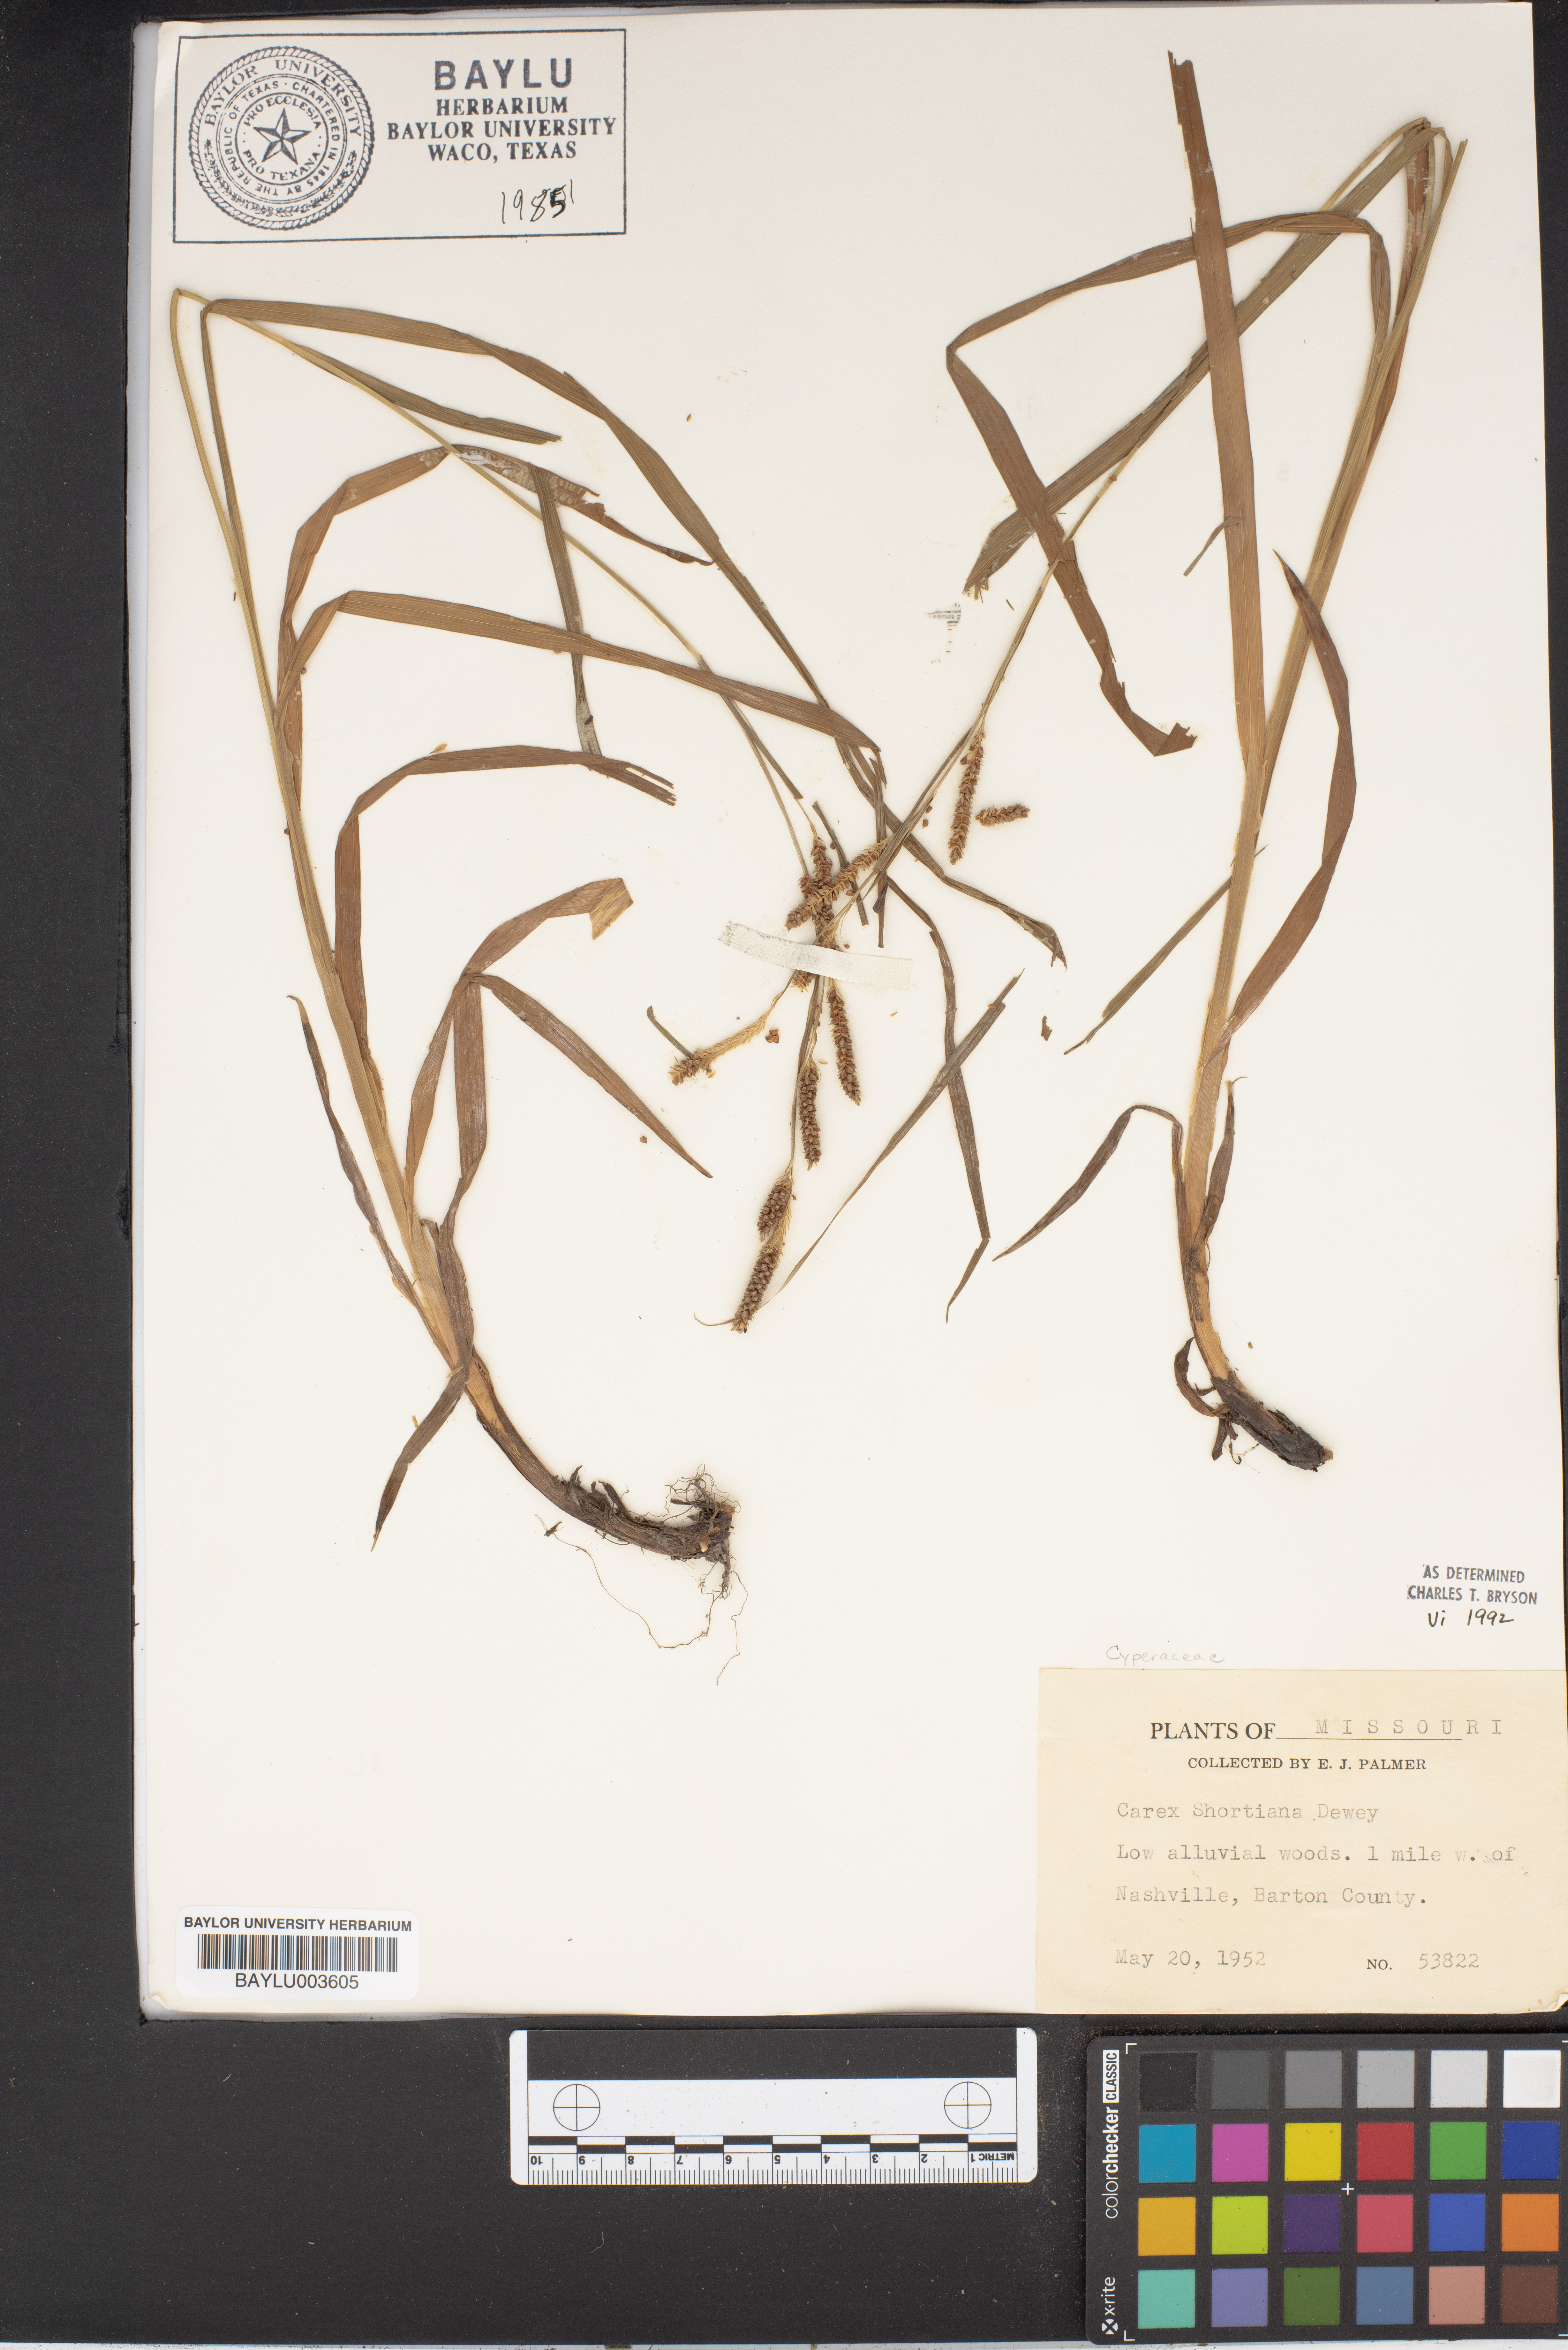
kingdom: Plantae
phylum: Tracheophyta
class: Liliopsida
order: Poales
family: Cyperaceae
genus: Carex
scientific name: Carex shortiana
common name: Short's sedge
